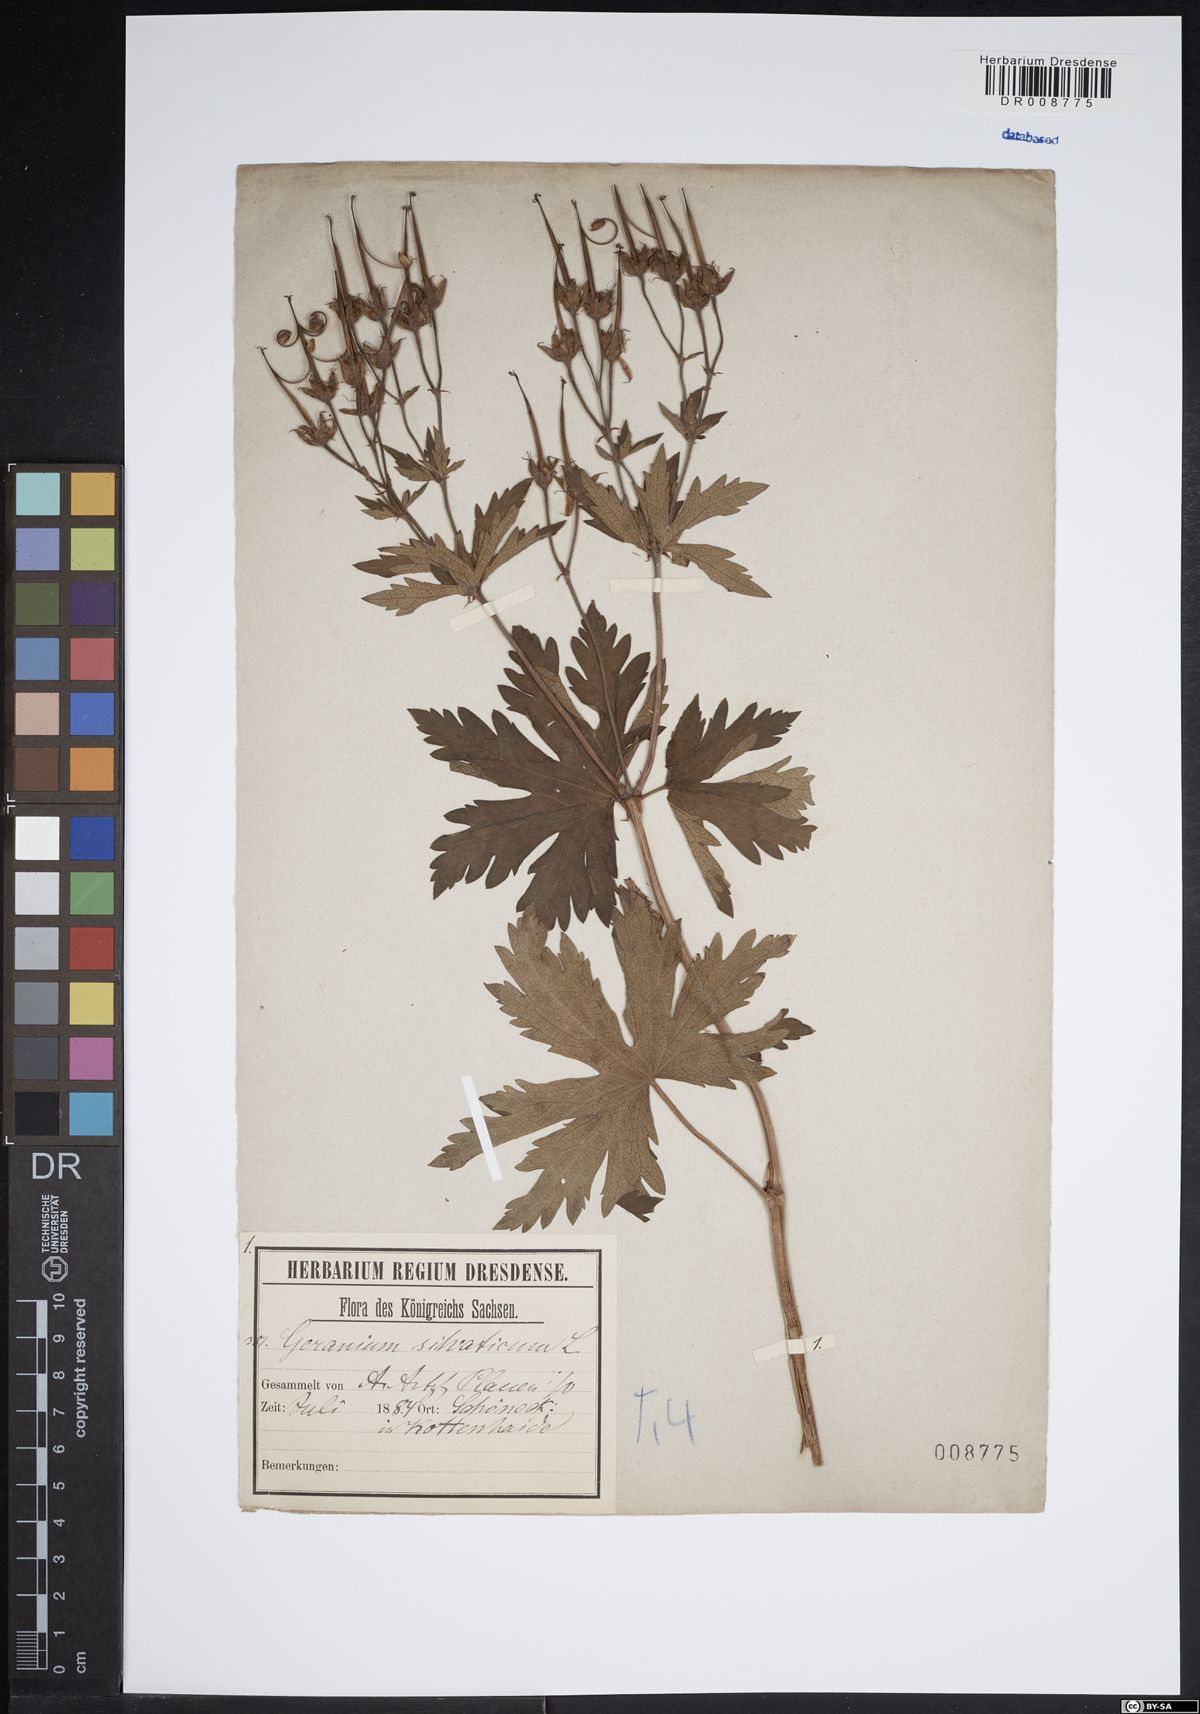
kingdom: Plantae
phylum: Tracheophyta
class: Magnoliopsida
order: Geraniales
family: Geraniaceae
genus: Geranium
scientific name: Geranium sylvaticum
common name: Wood crane's-bill
